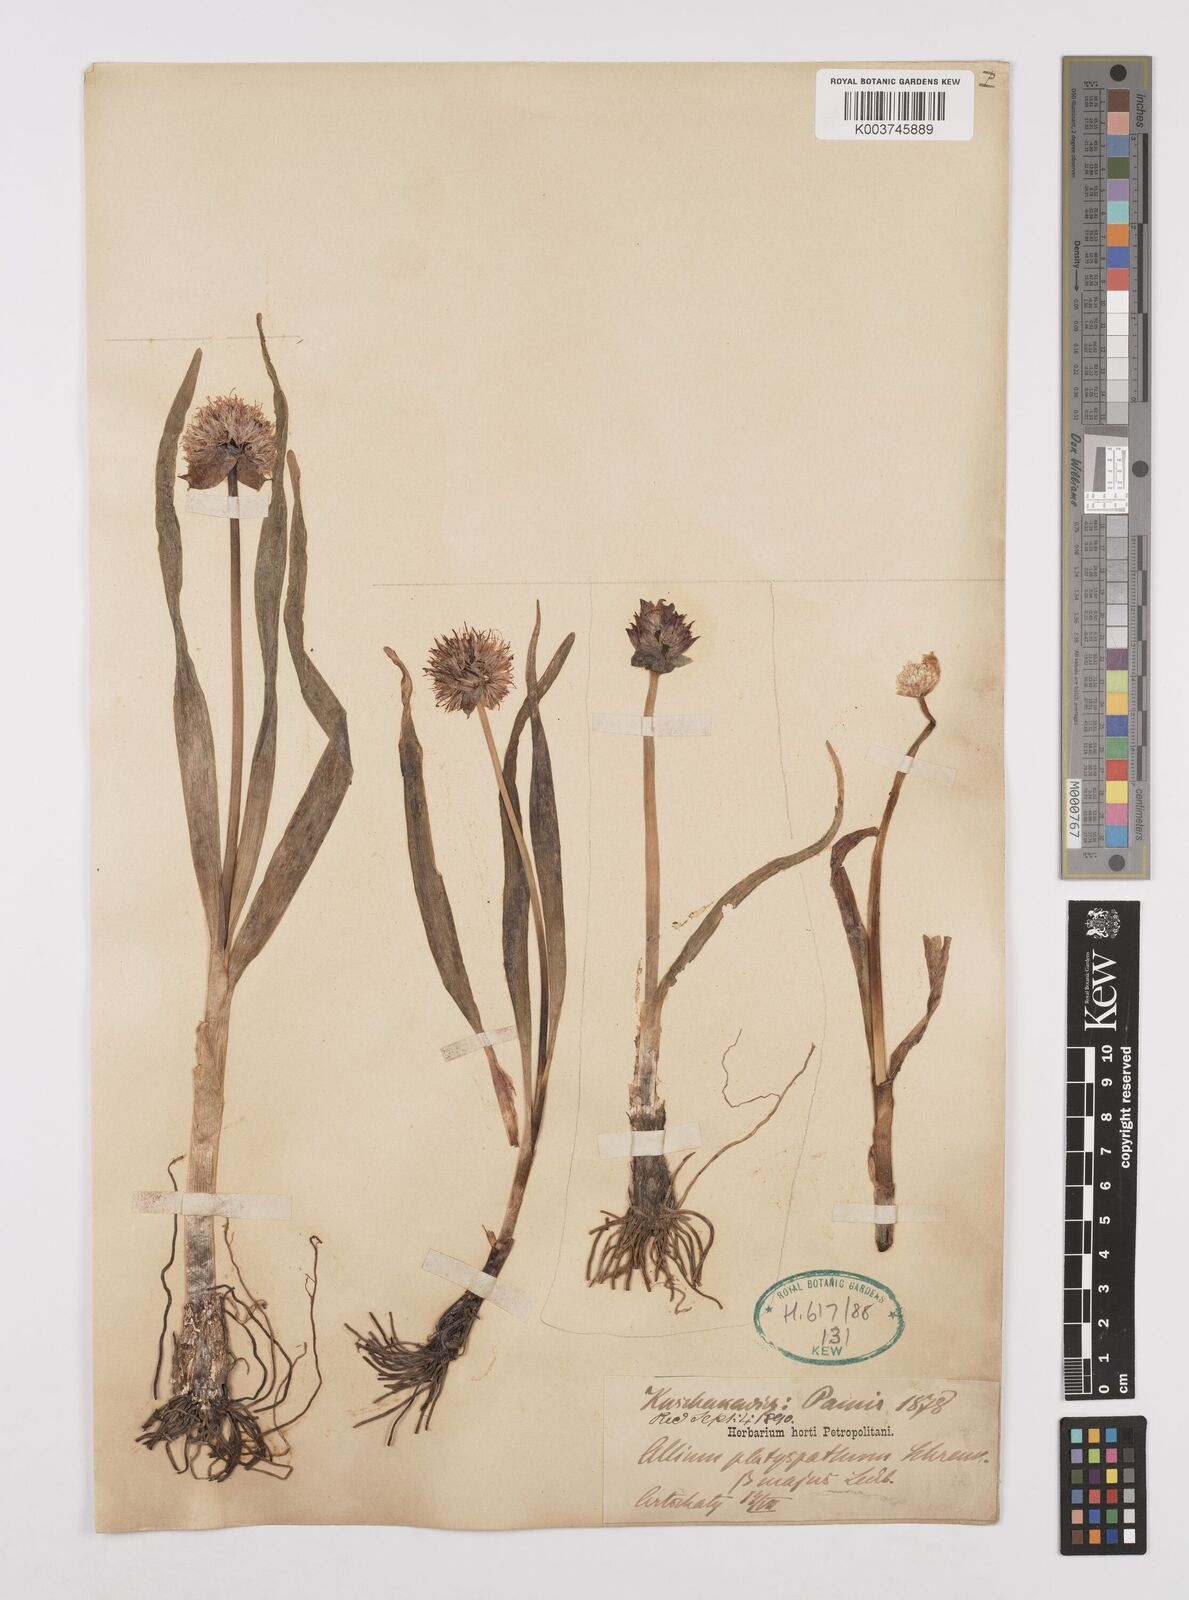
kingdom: Plantae
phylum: Tracheophyta
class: Liliopsida
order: Asparagales
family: Amaryllidaceae
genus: Allium
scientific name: Allium platyspathum
